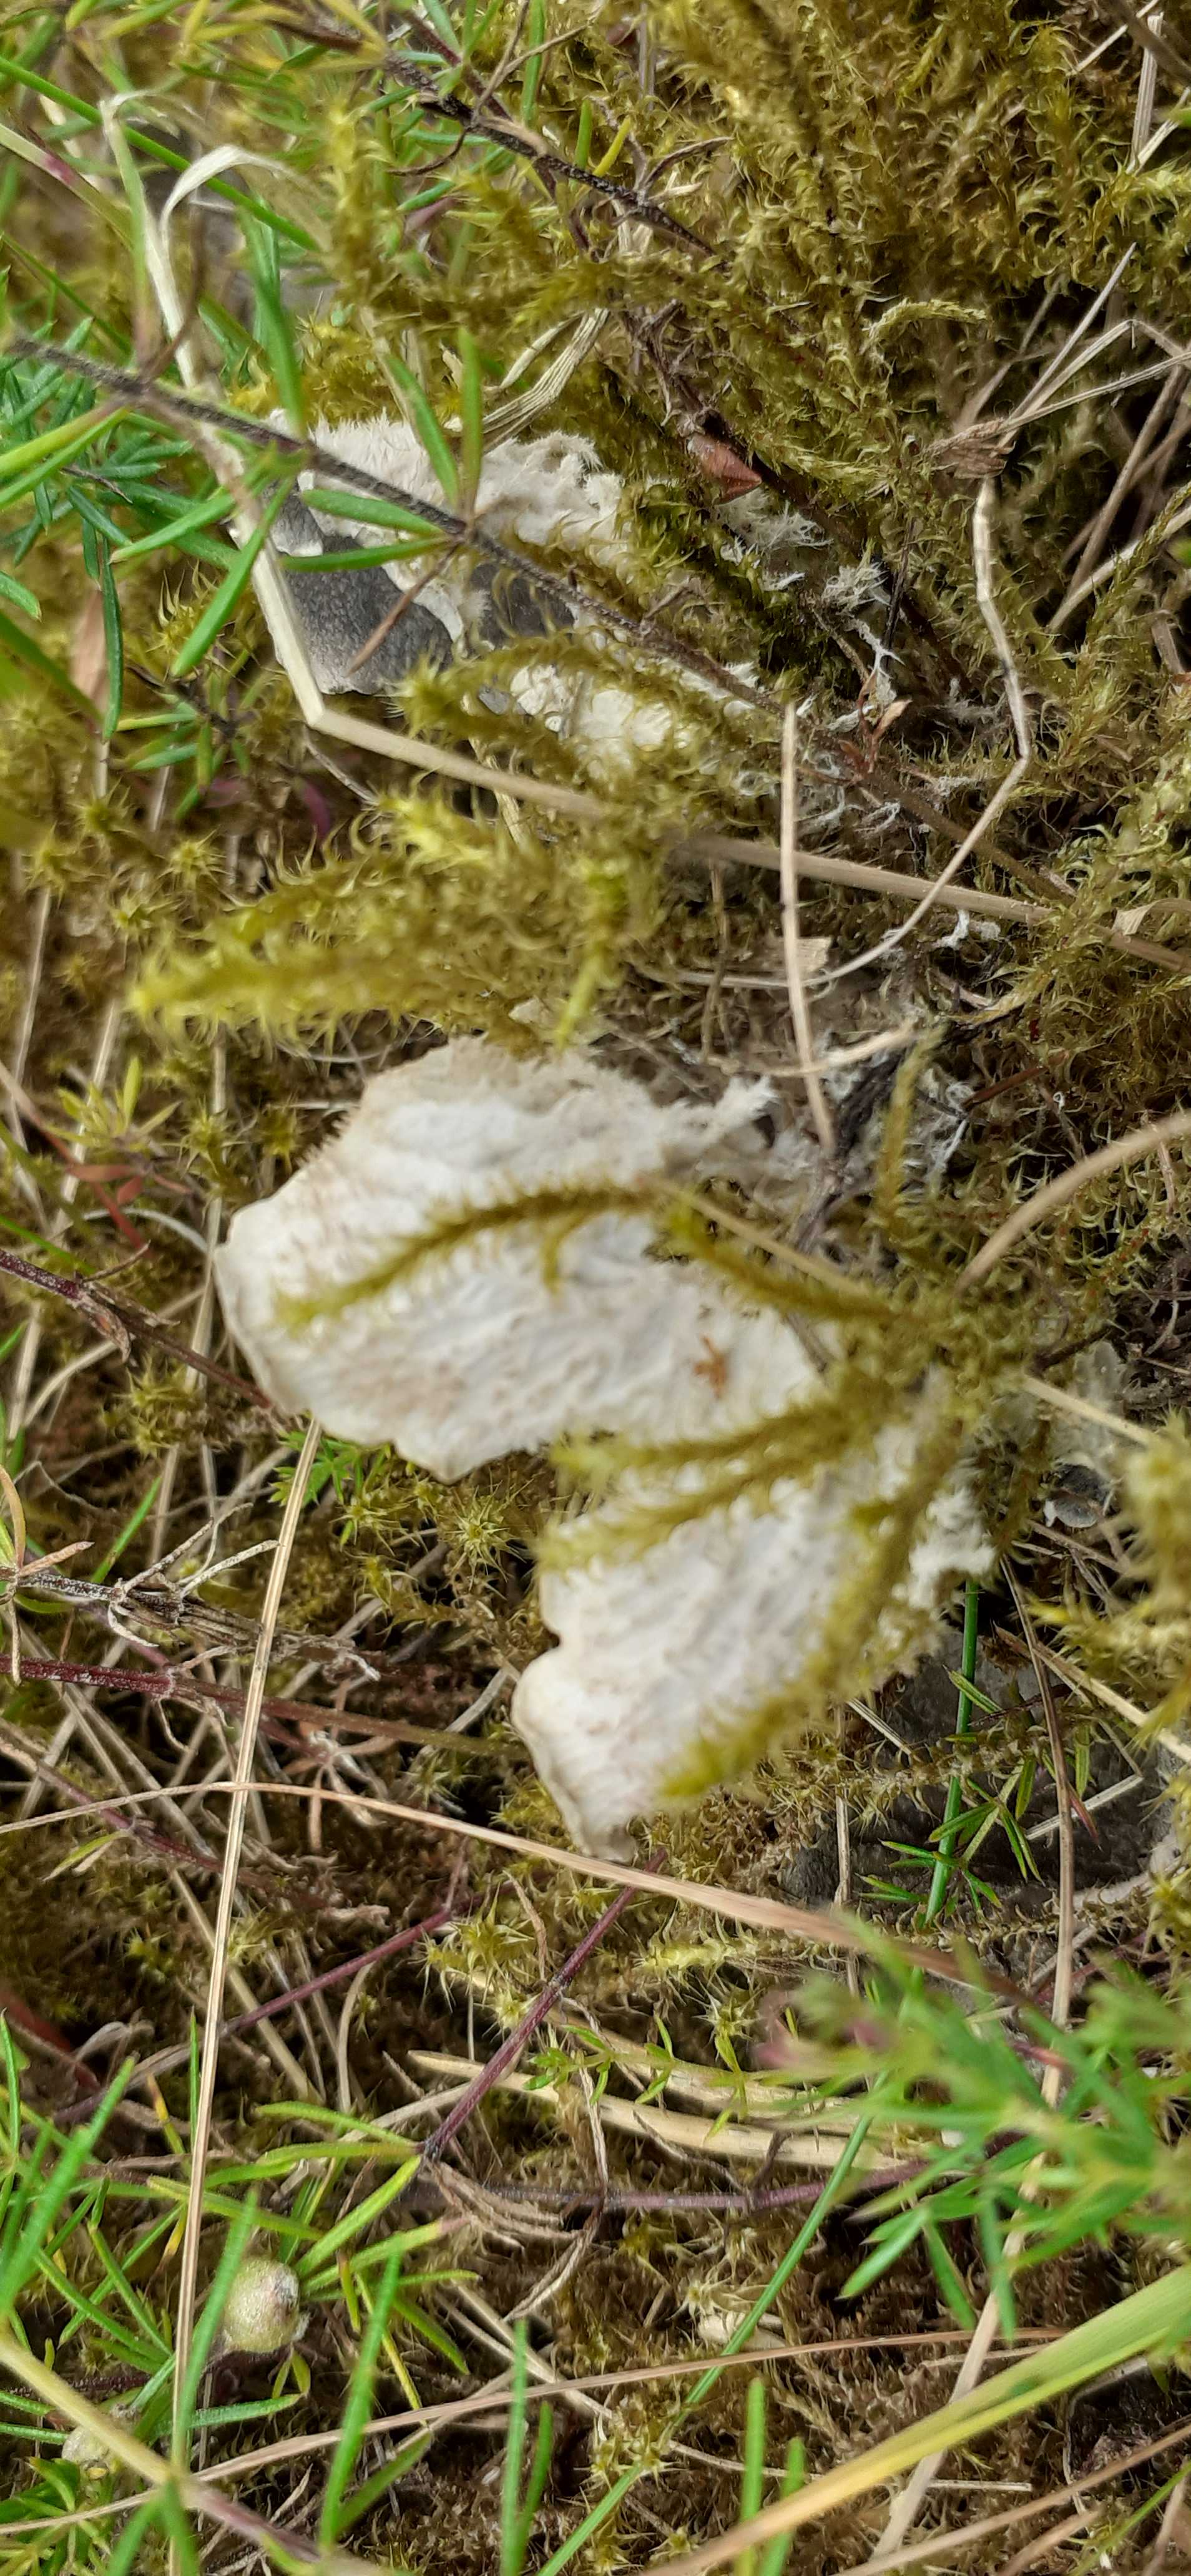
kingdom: Fungi
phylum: Ascomycota
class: Lecanoromycetes
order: Peltigerales
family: Peltigeraceae
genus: Peltigera
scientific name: Peltigera
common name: skjoldlav
